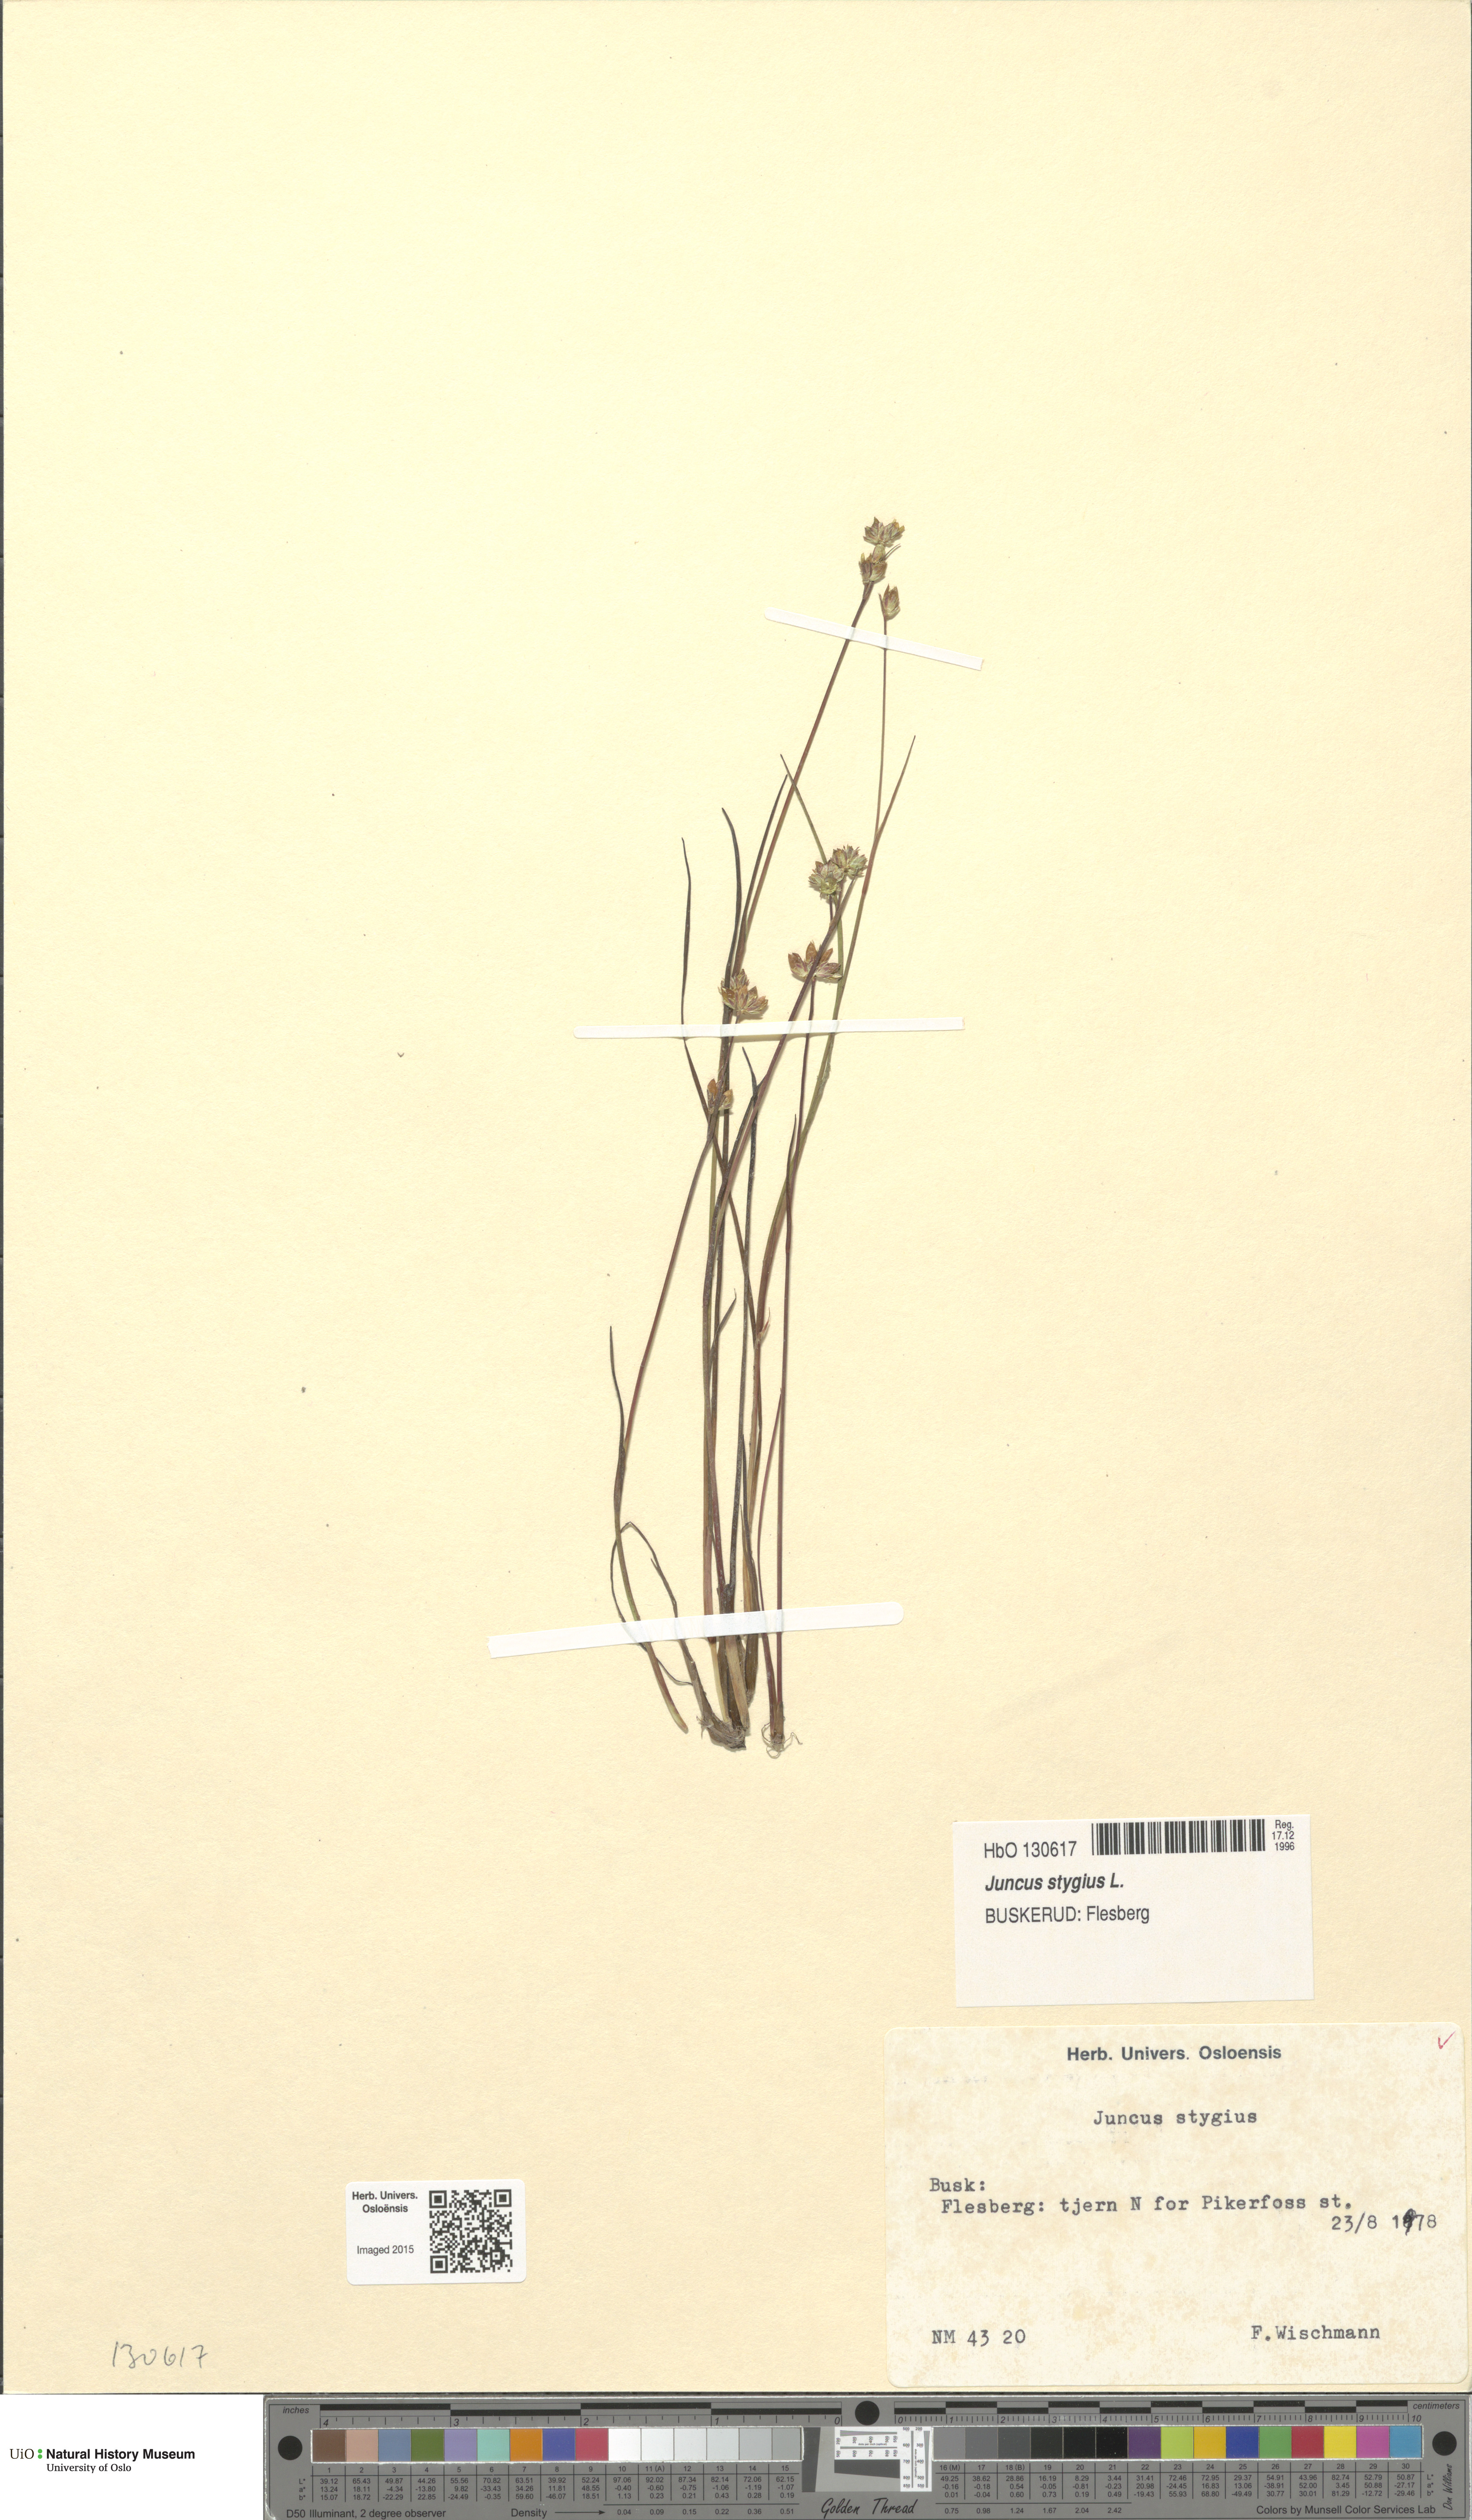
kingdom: Plantae
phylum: Tracheophyta
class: Liliopsida
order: Poales
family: Juncaceae
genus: Juncus
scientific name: Juncus stygius
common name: Bog rush
